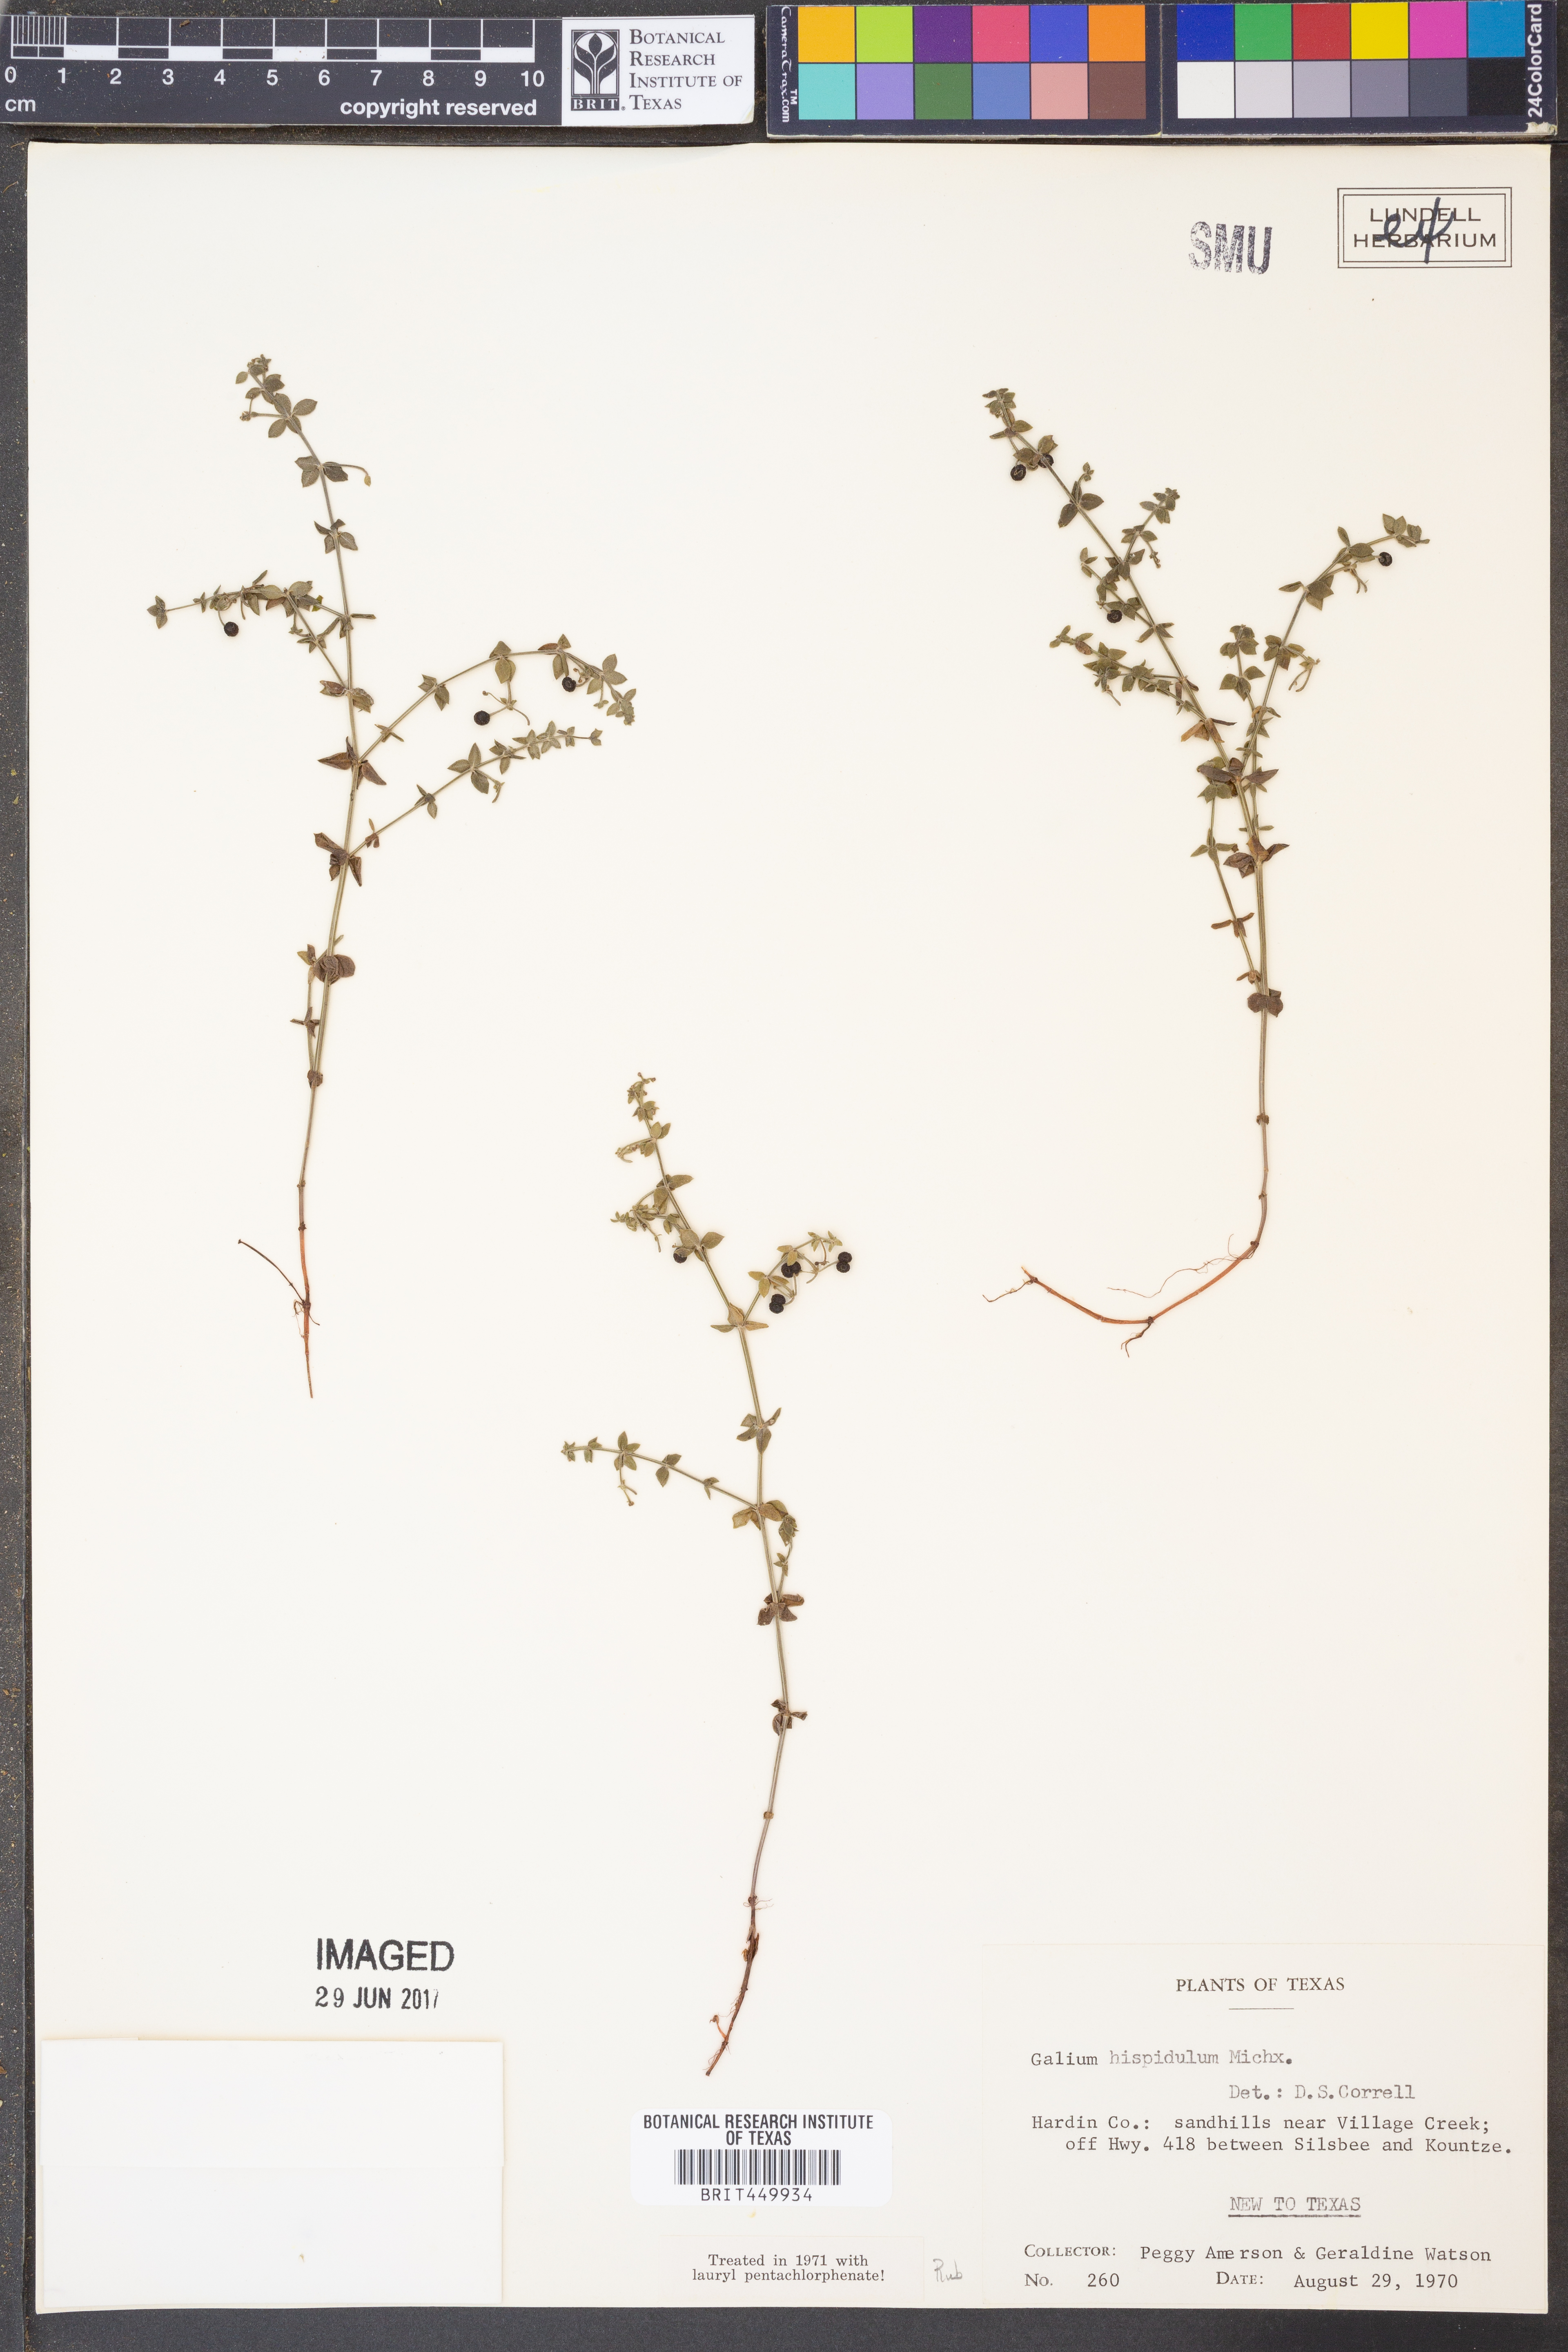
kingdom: Plantae
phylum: Tracheophyta
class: Magnoliopsida
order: Gentianales
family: Rubiaceae
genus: Galium
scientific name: Galium bermudense
